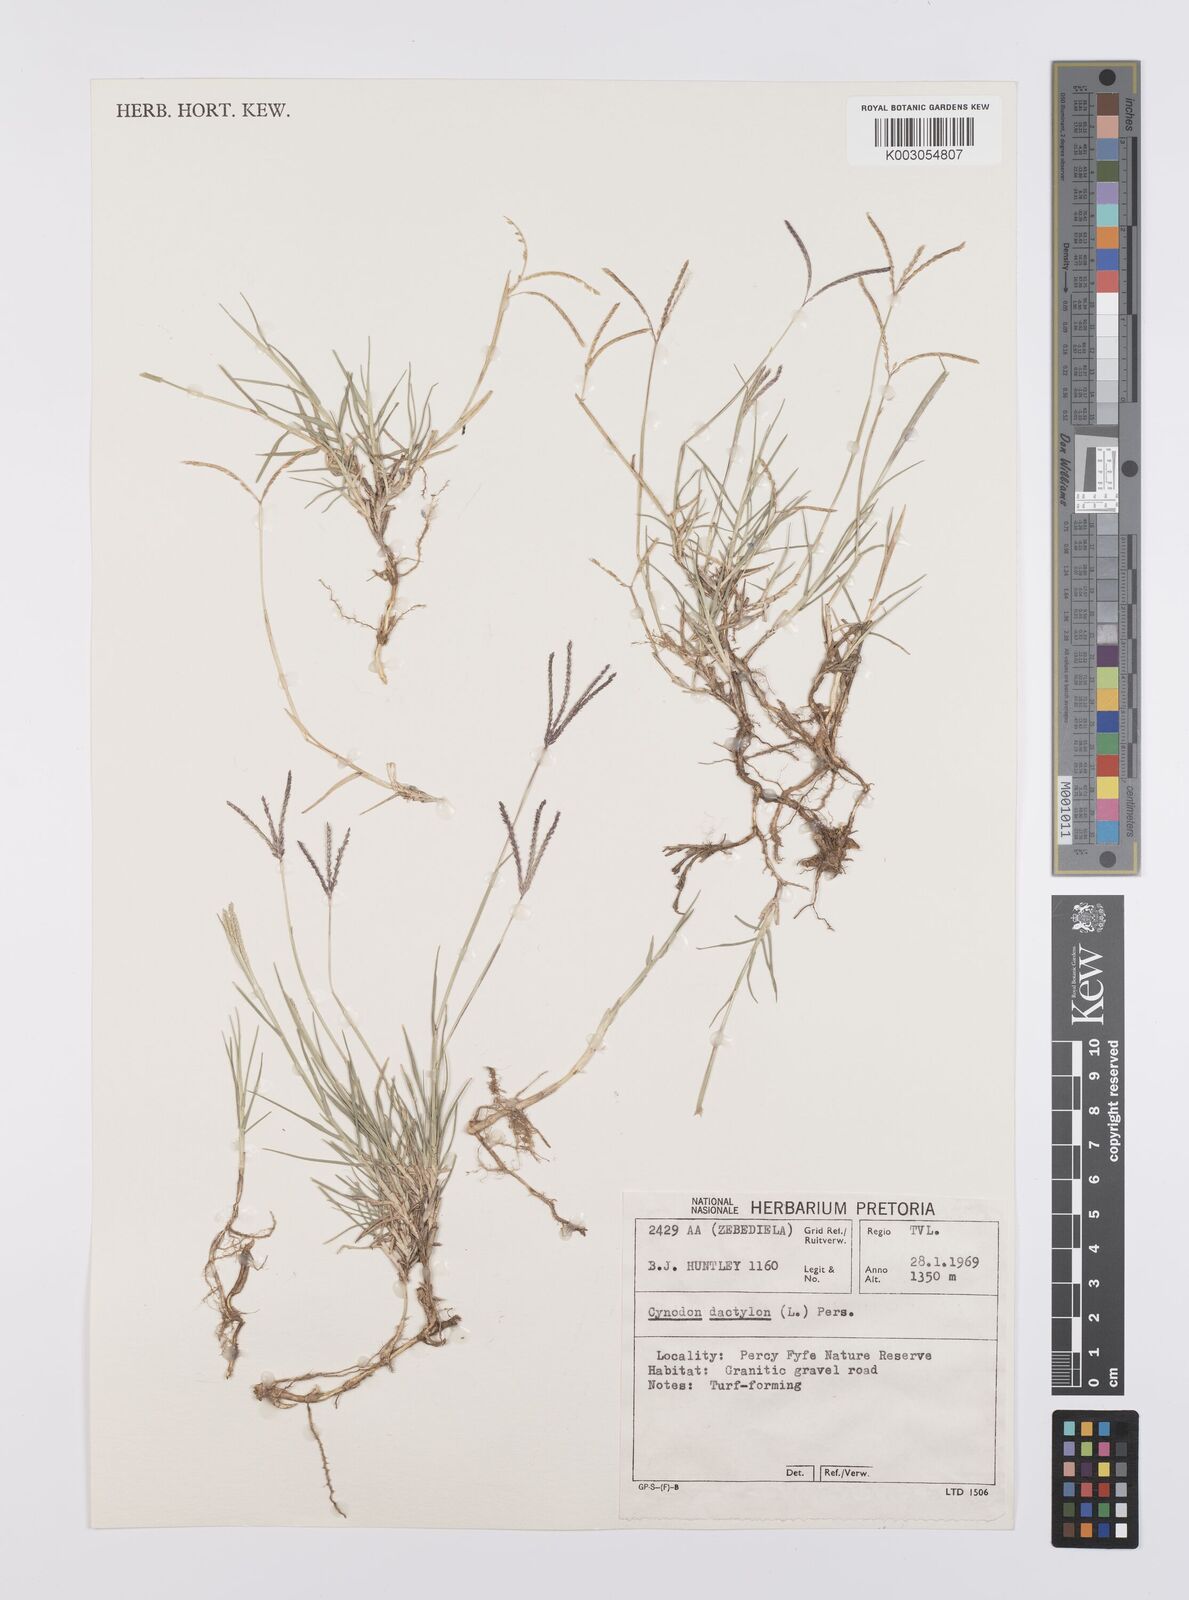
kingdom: Plantae
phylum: Tracheophyta
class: Liliopsida
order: Poales
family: Poaceae
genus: Cynodon
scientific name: Cynodon dactylon
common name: Bermuda grass
